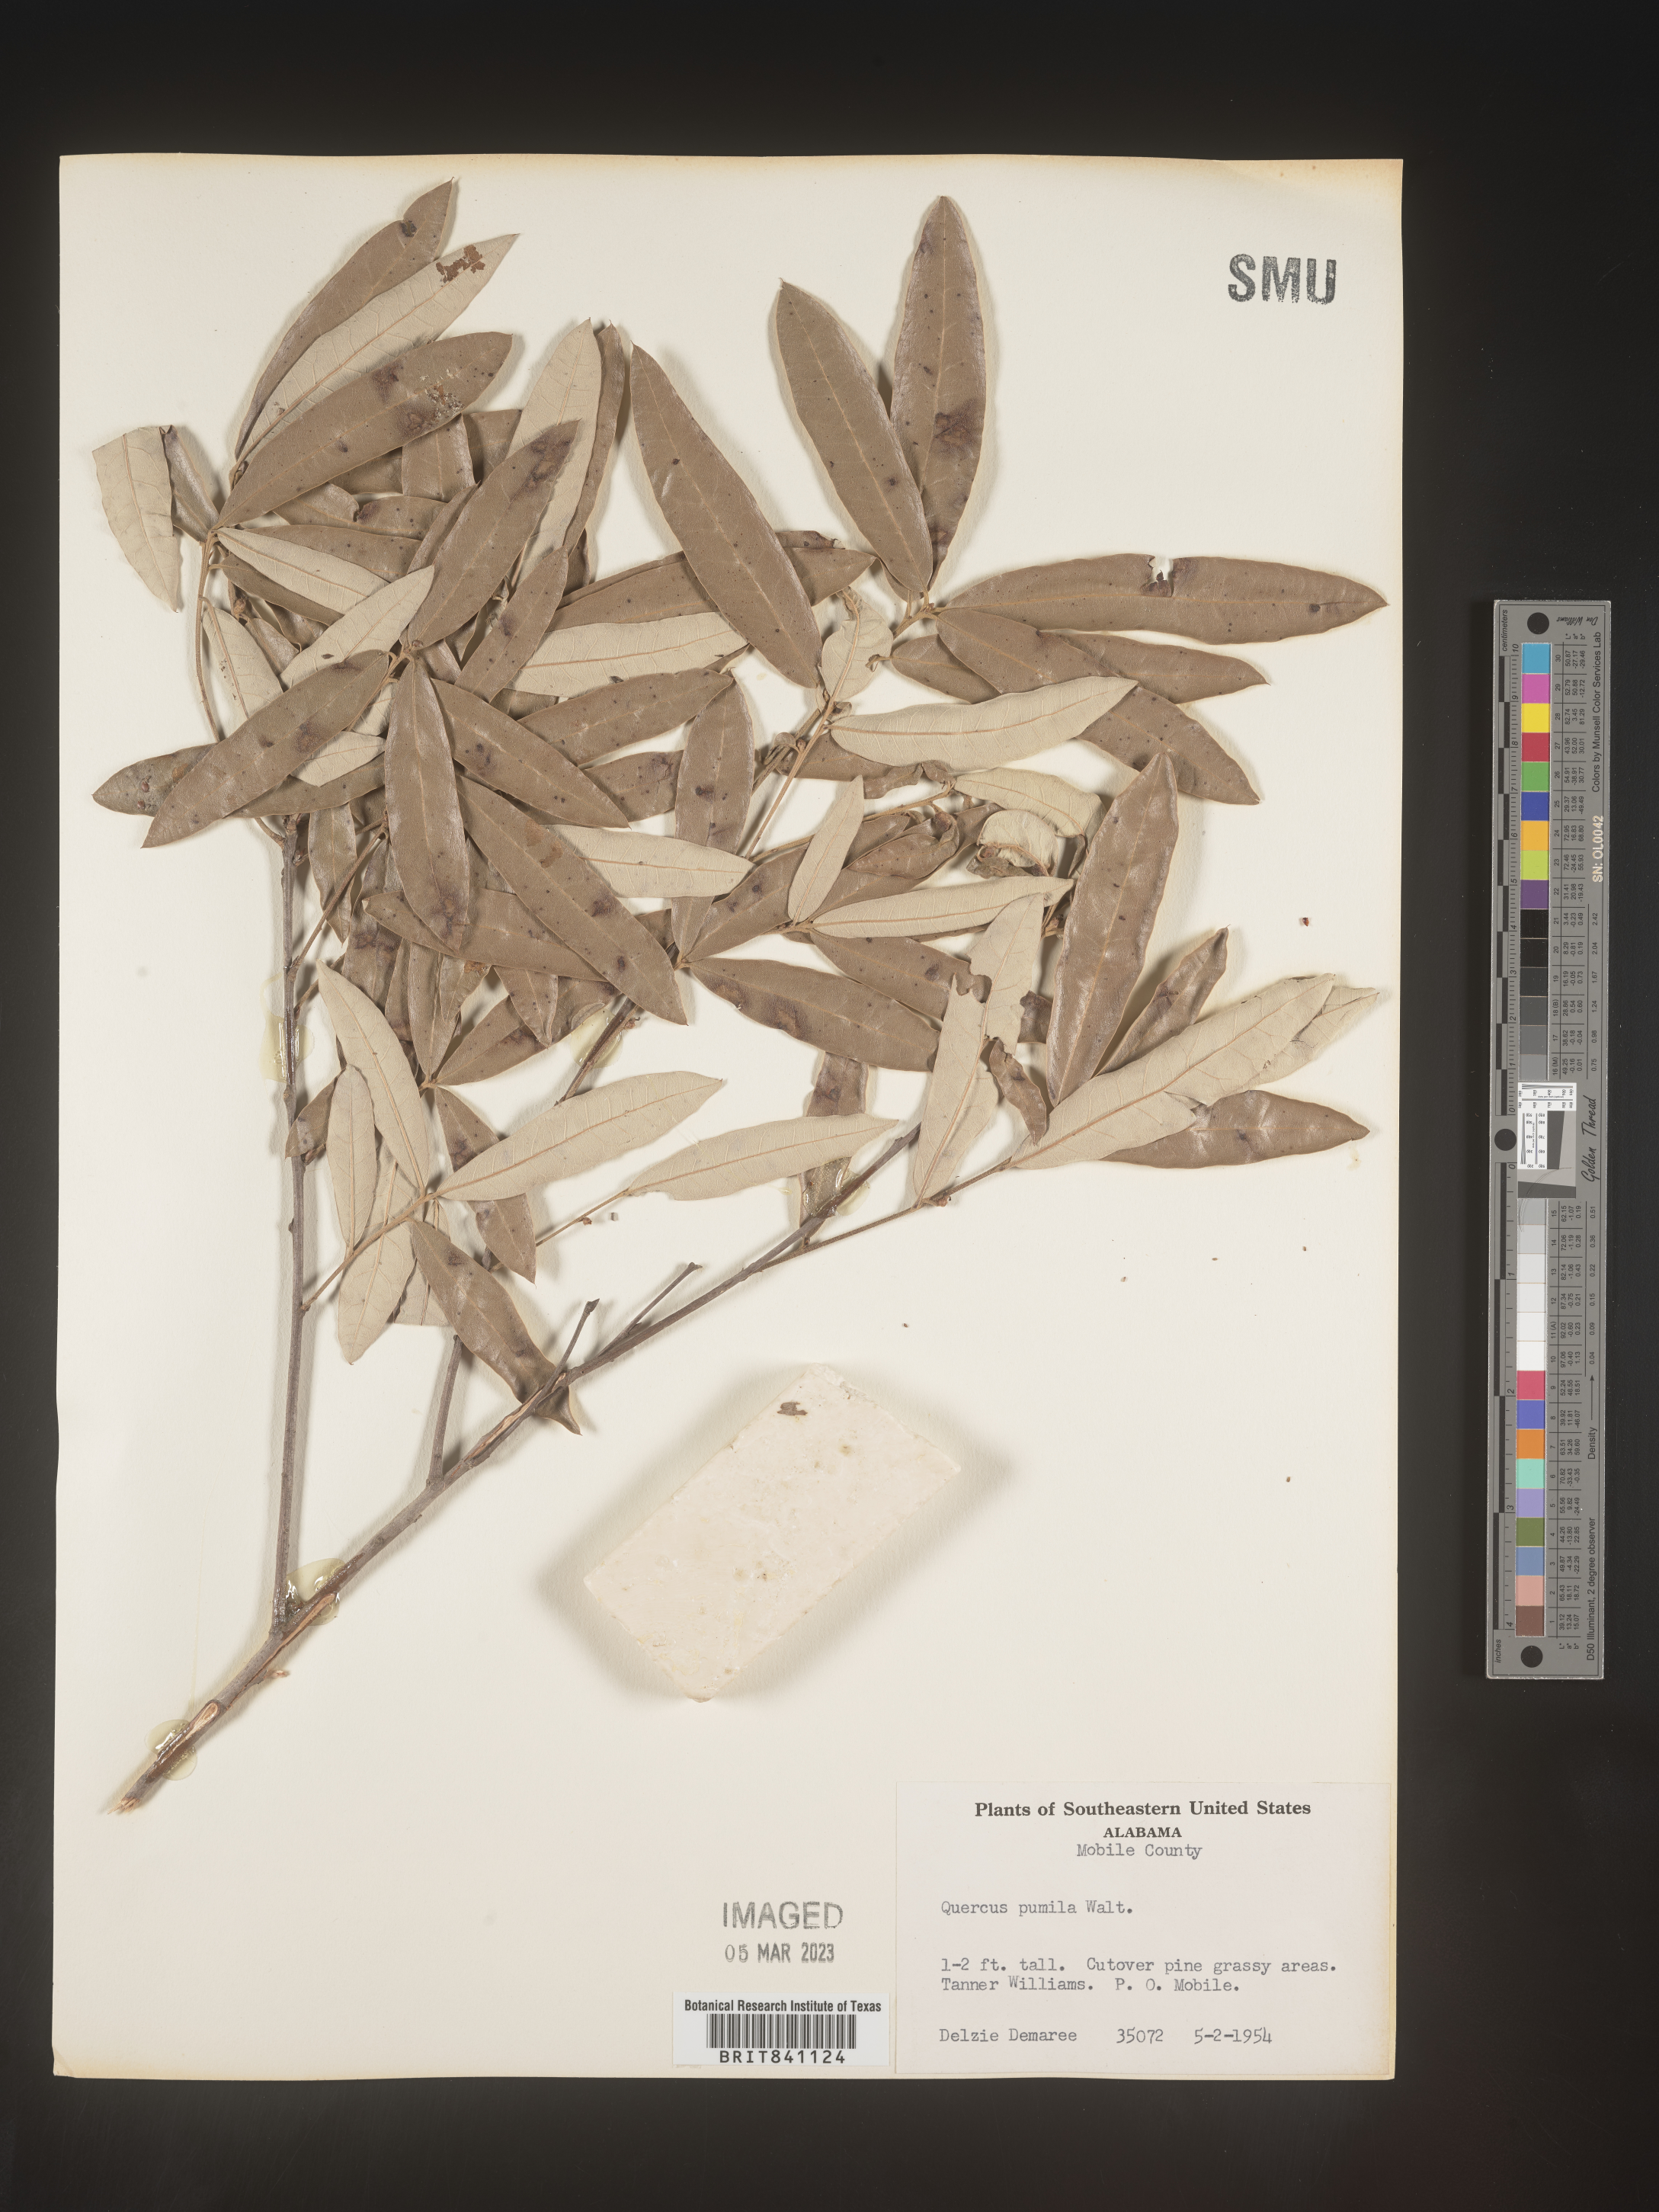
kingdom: Plantae
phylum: Tracheophyta
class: Magnoliopsida
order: Fagales
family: Fagaceae
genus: Quercus
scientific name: Quercus pumila
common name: Runner oak
